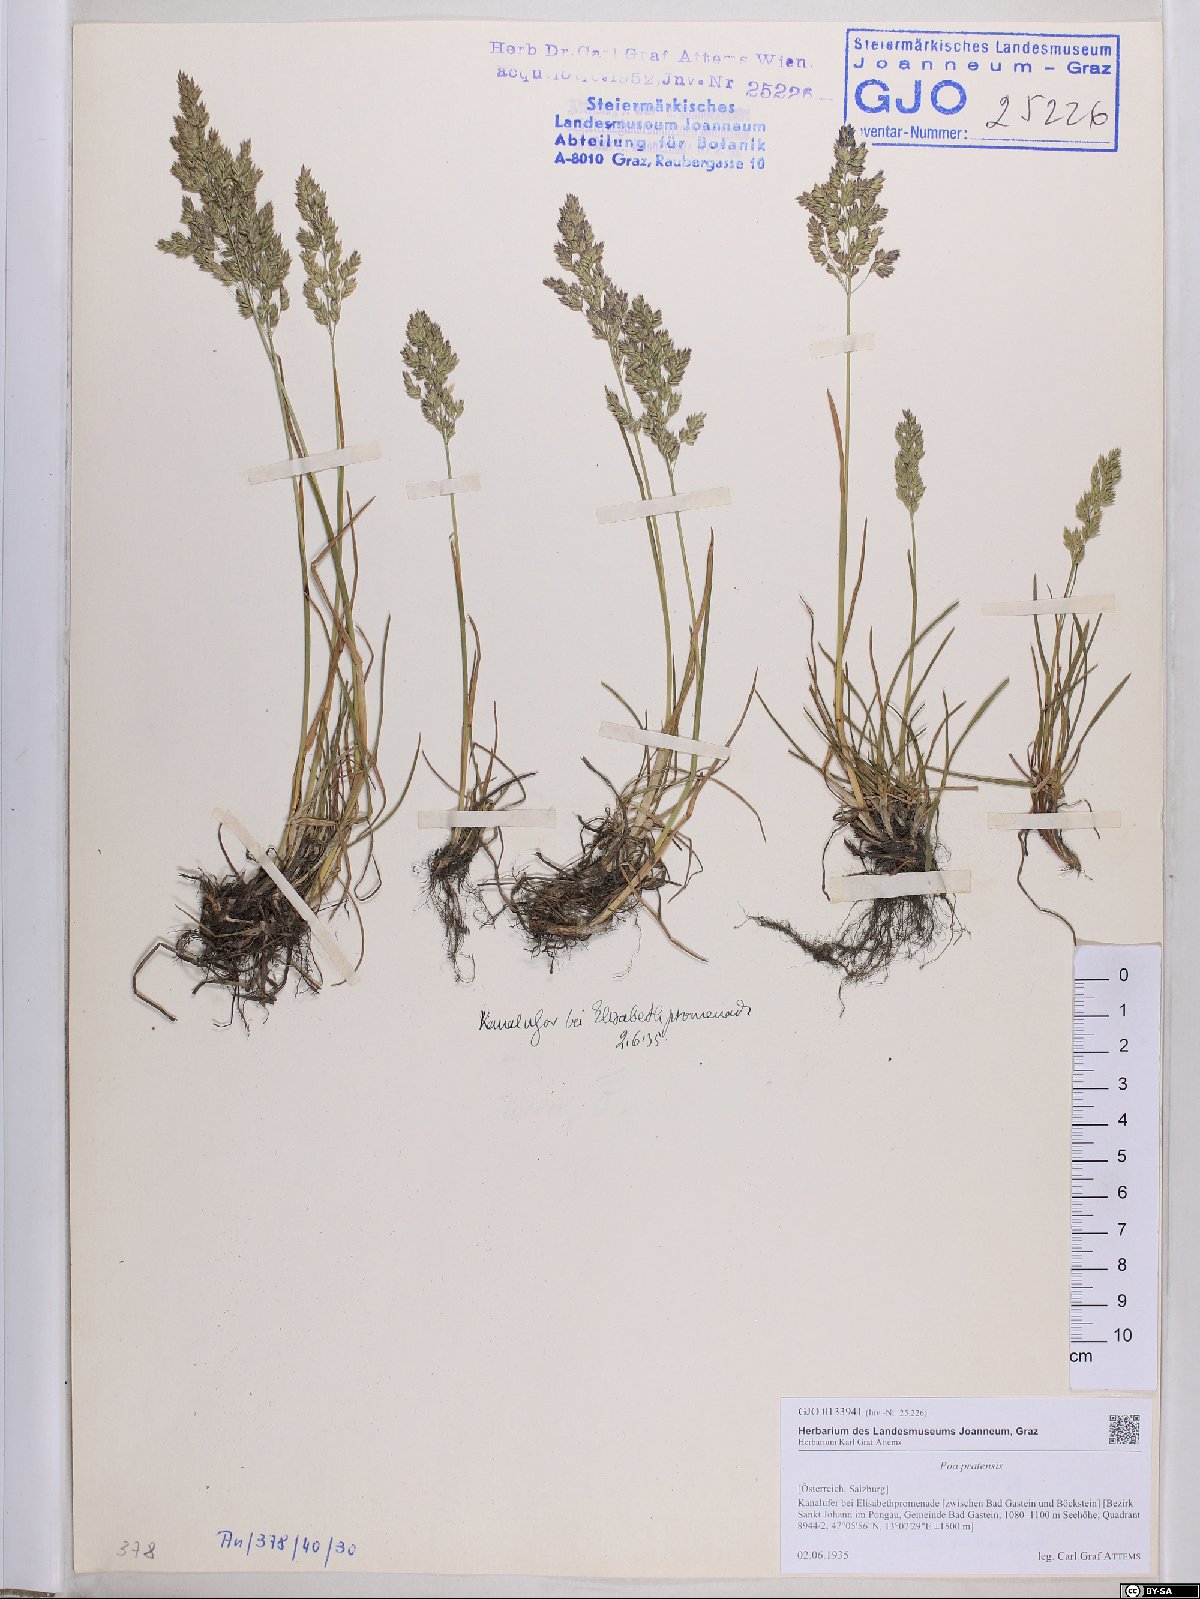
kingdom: Plantae
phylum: Tracheophyta
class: Liliopsida
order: Poales
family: Poaceae
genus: Poa
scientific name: Poa pratensis
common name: Kentucky bluegrass
